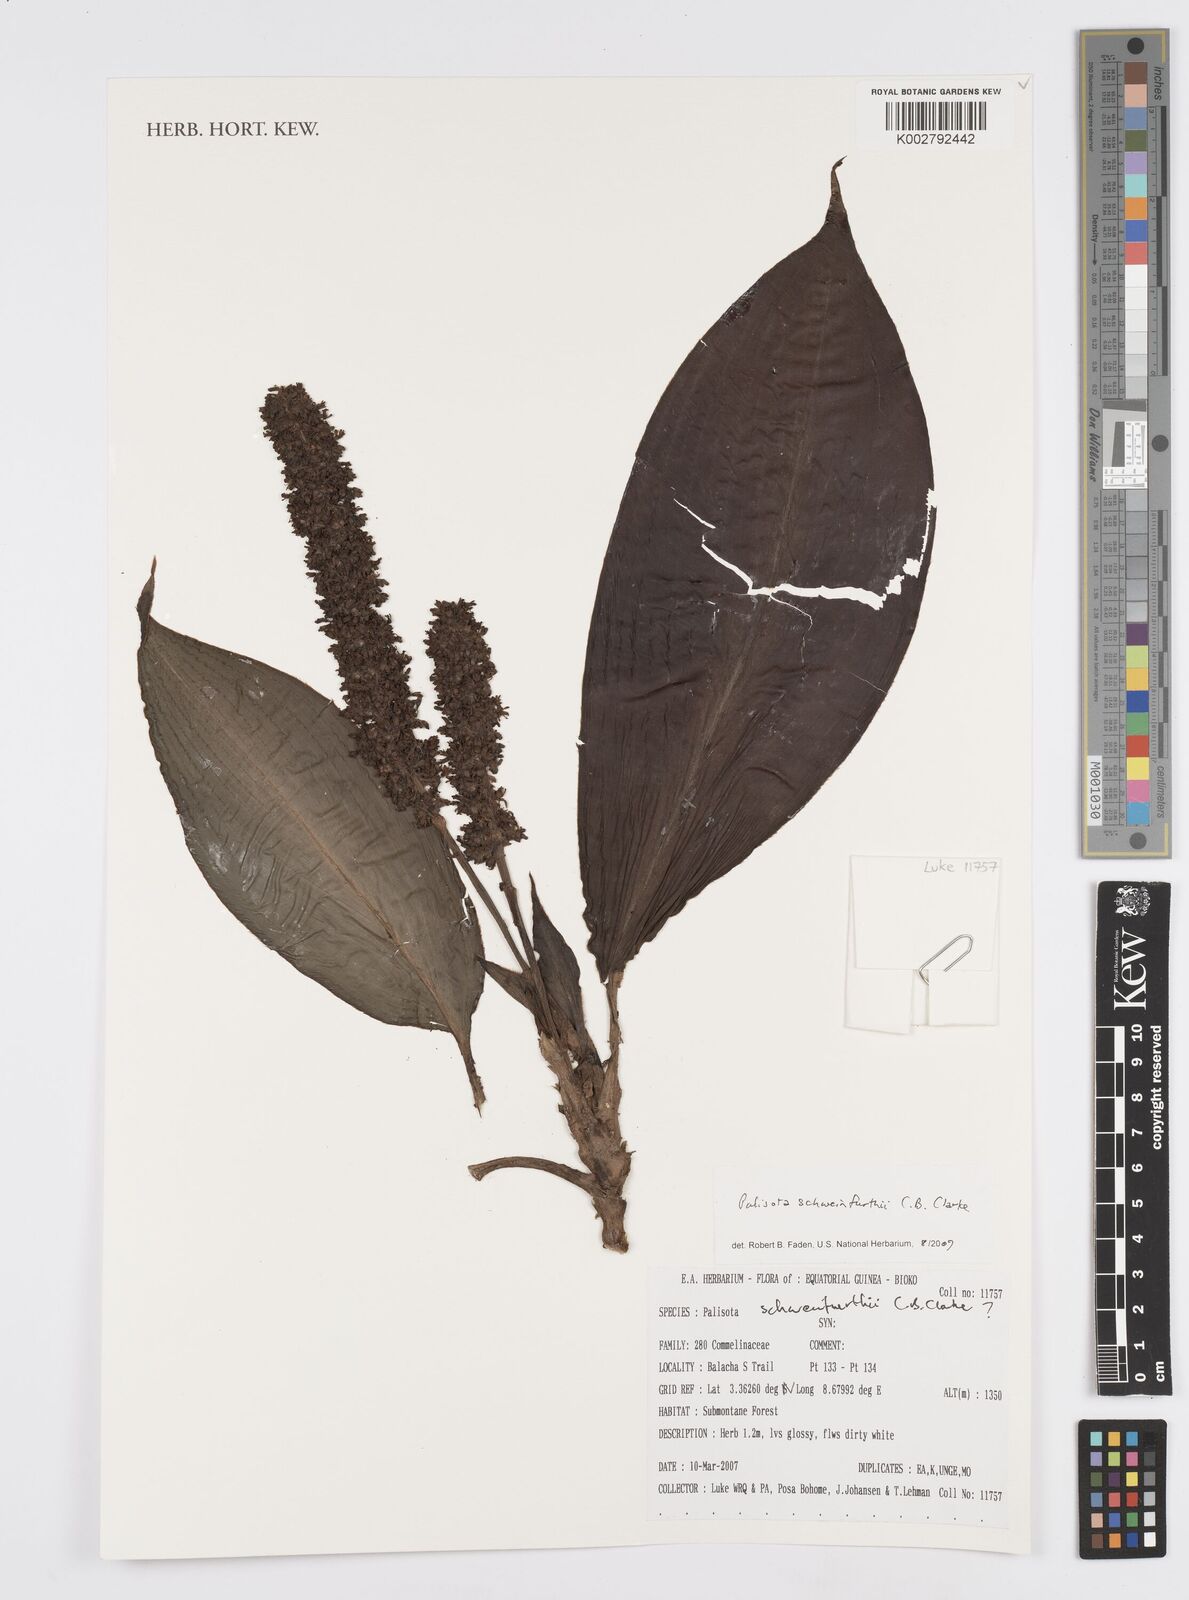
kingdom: Plantae
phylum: Tracheophyta
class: Liliopsida
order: Commelinales
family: Commelinaceae
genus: Palisota
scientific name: Palisota schweinfurthii
